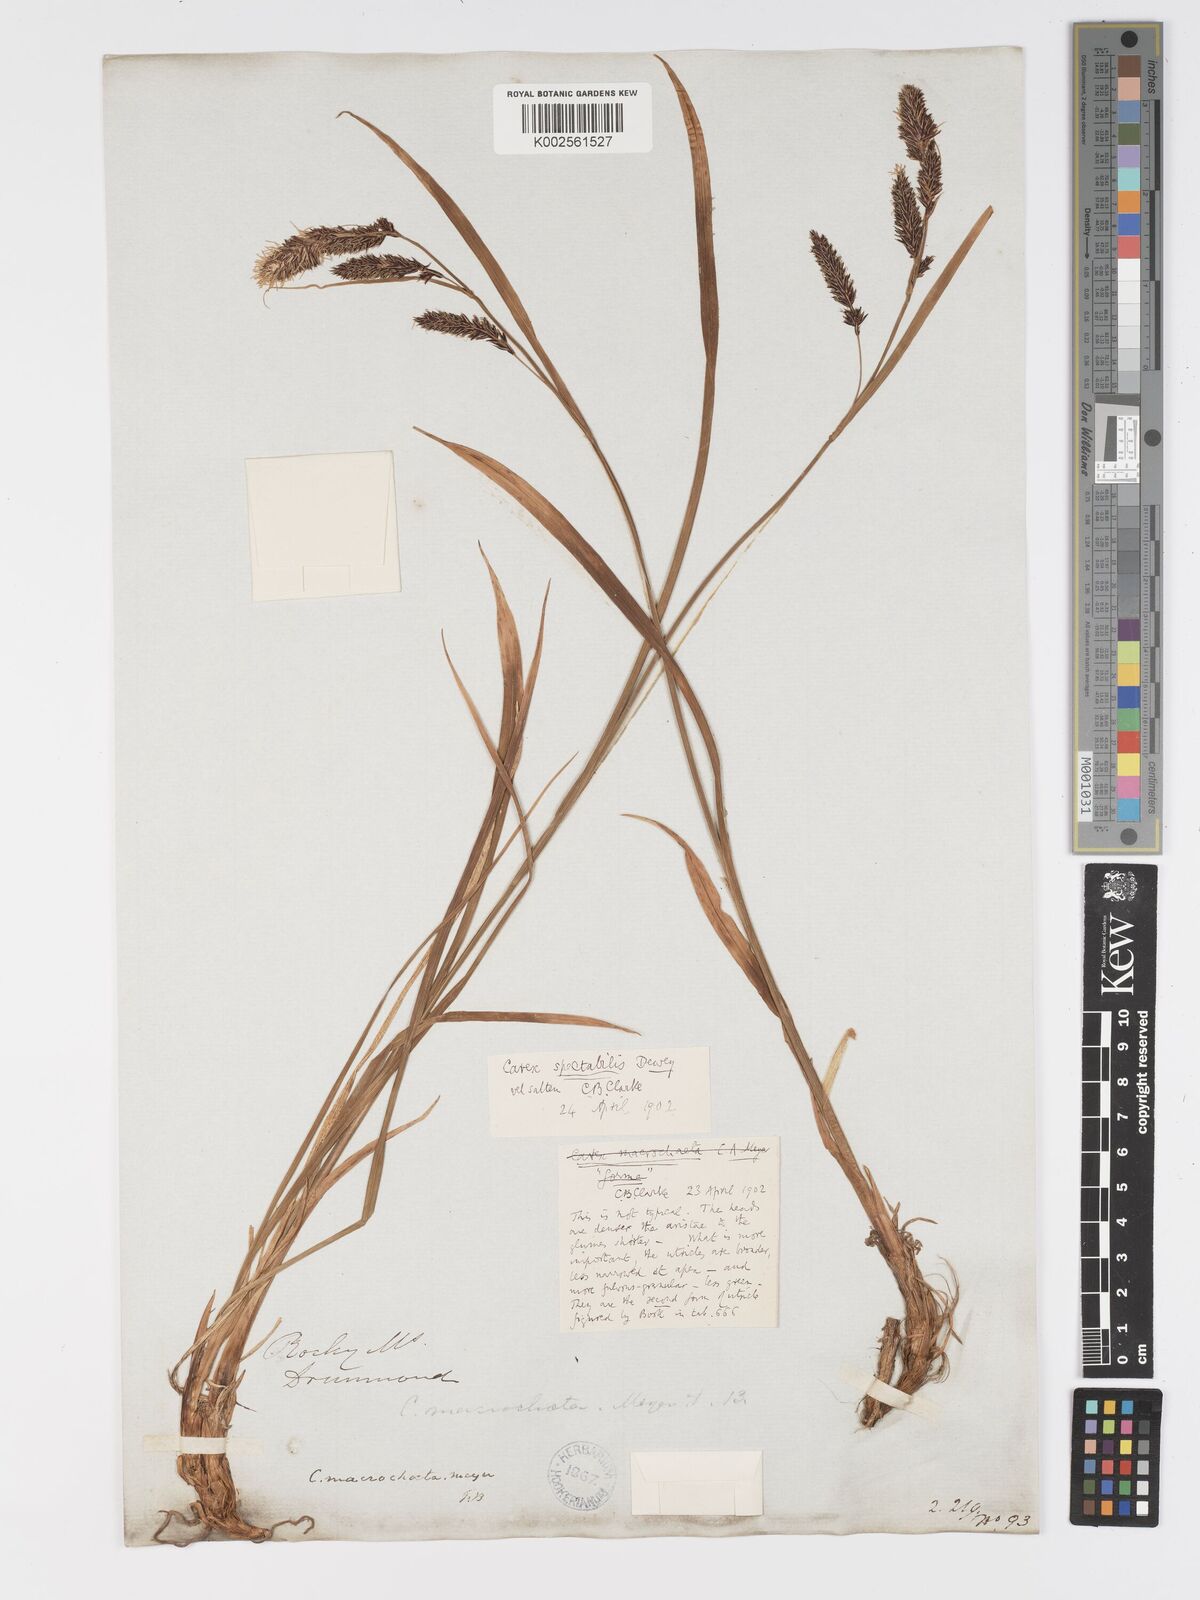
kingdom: Plantae
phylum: Tracheophyta
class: Liliopsida
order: Poales
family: Cyperaceae
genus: Carex
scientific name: Carex spectabilis
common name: Northwestern showy sedge
